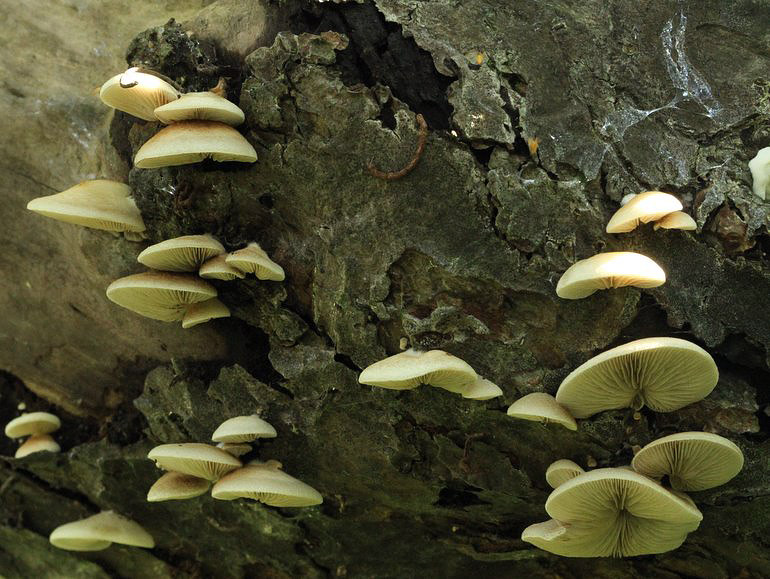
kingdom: Fungi
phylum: Basidiomycota
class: Agaricomycetes
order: Agaricales
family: Crepidotaceae
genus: Crepidotus
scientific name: Crepidotus mollis
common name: blød muslingesvamp
